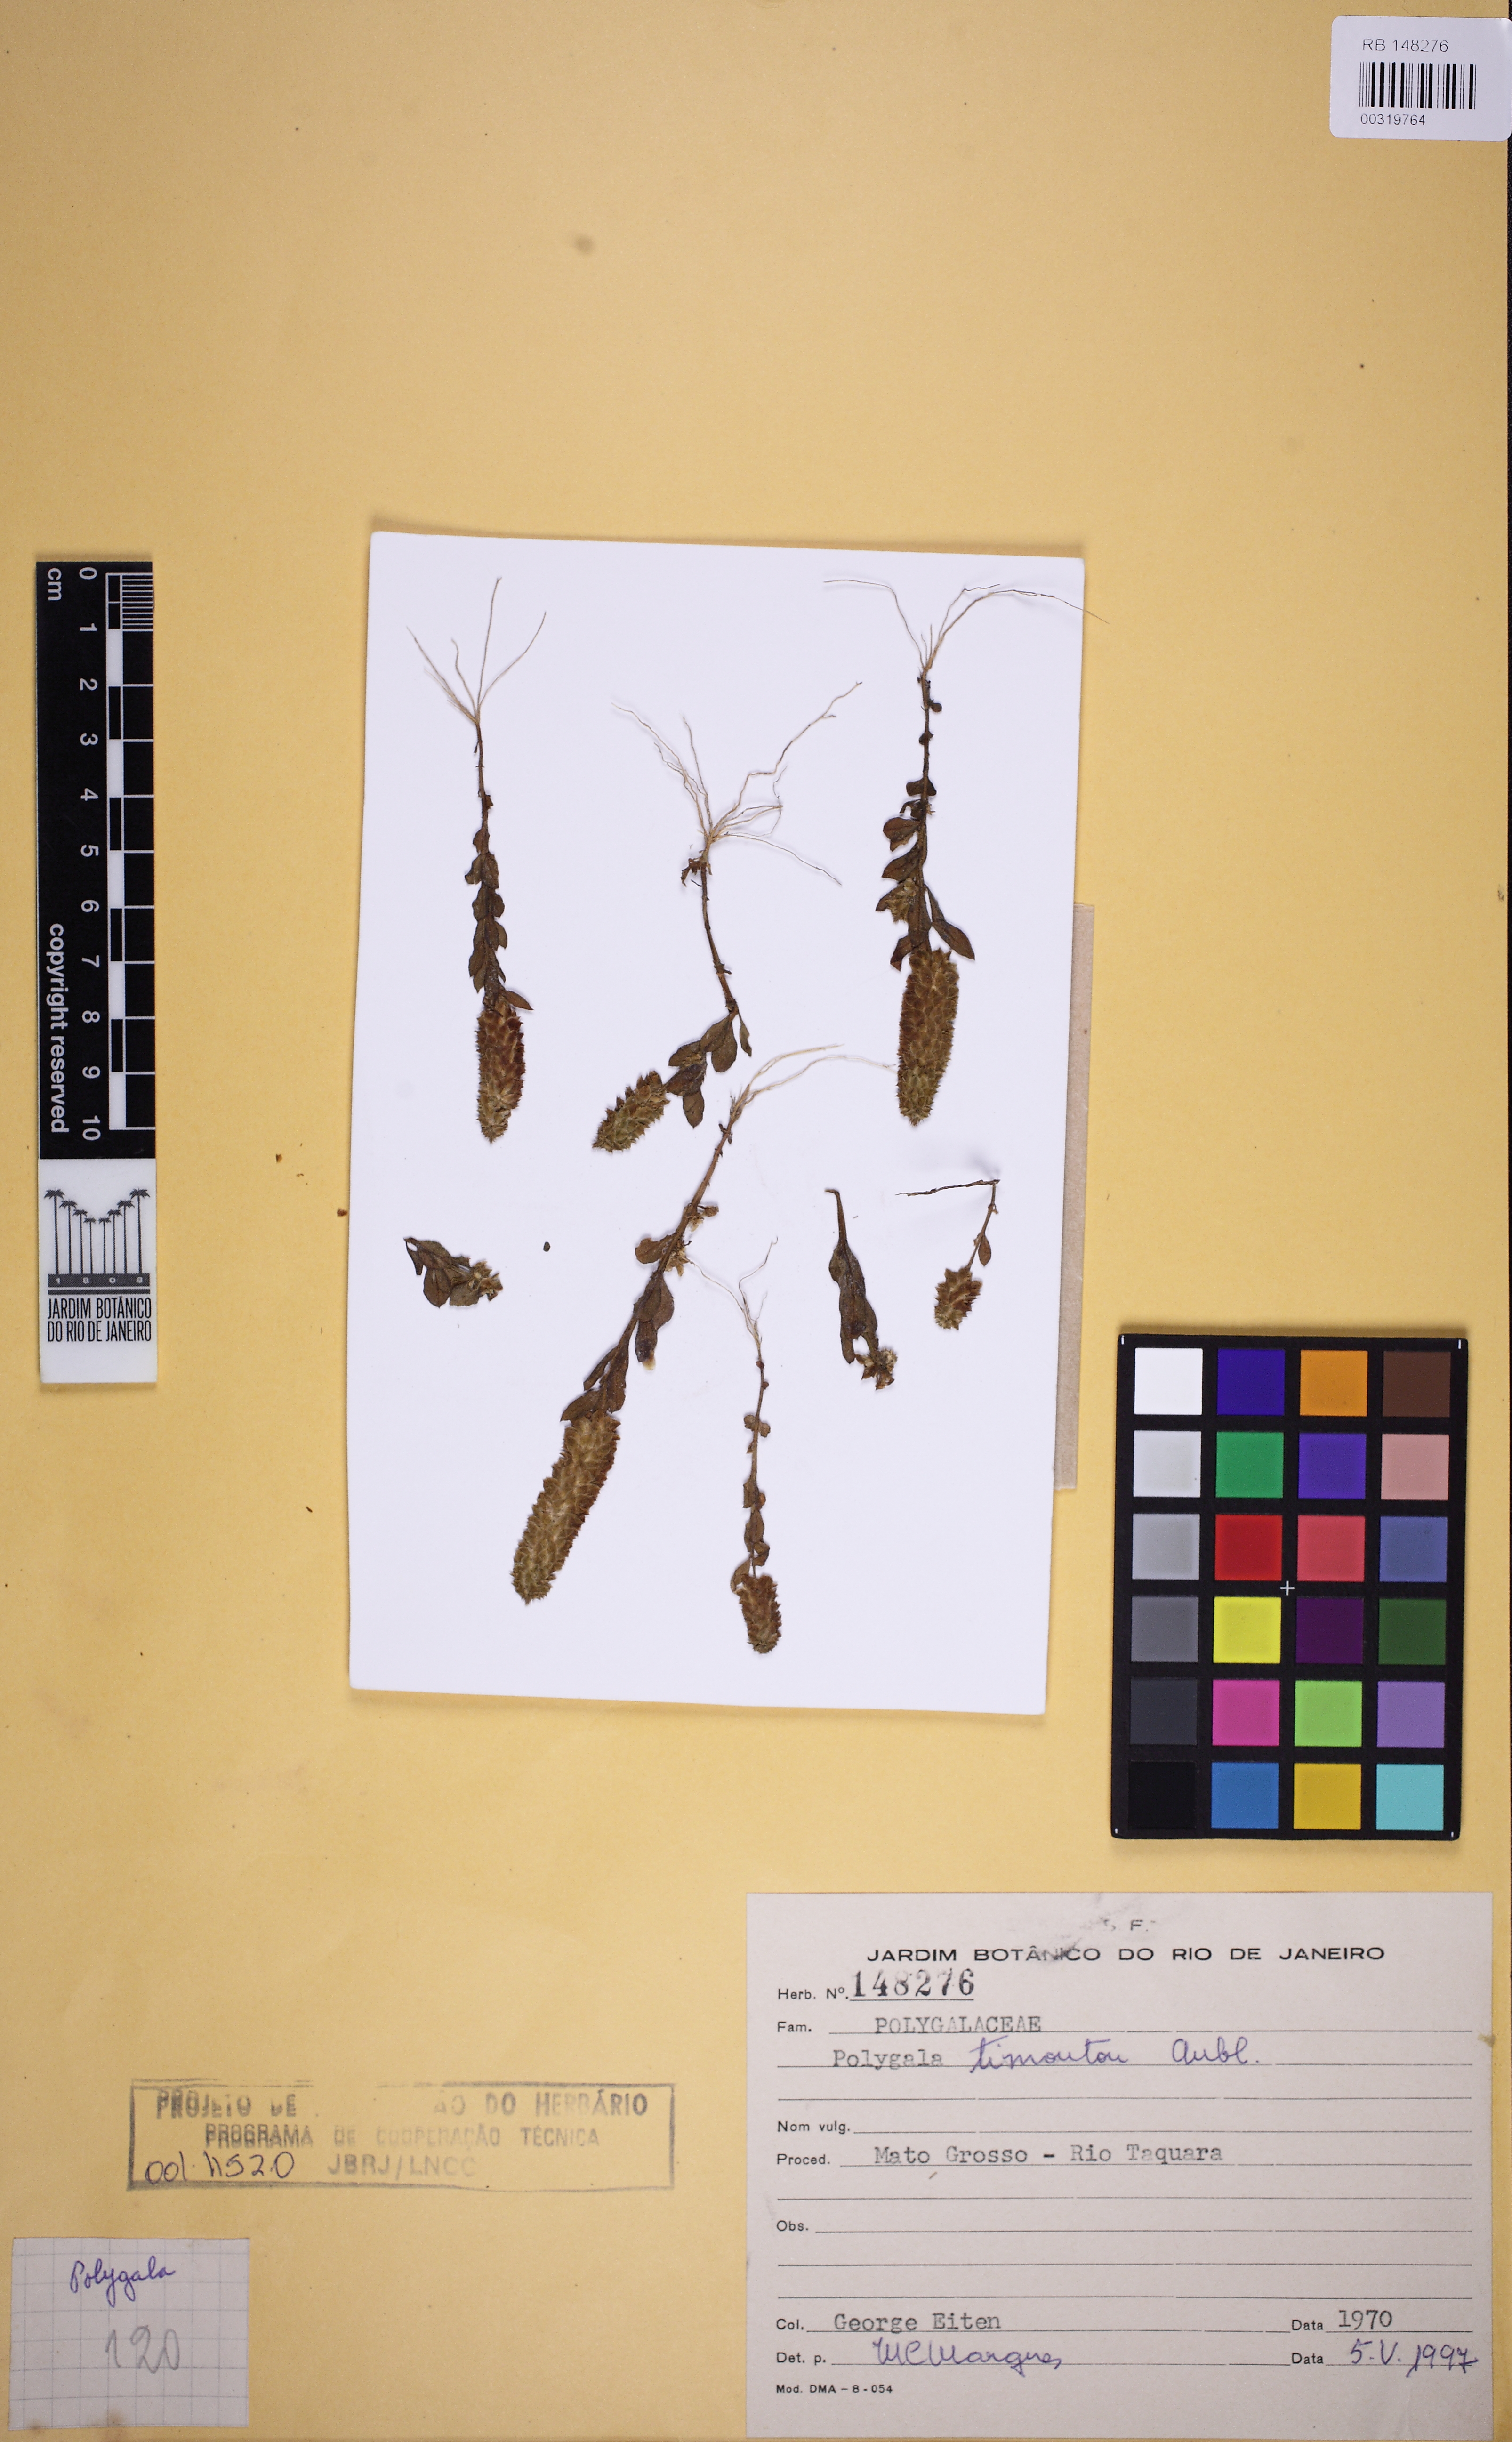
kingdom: Plantae
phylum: Tracheophyta
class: Magnoliopsida
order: Fabales
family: Polygalaceae
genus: Polygala
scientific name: Polygala timoutou
